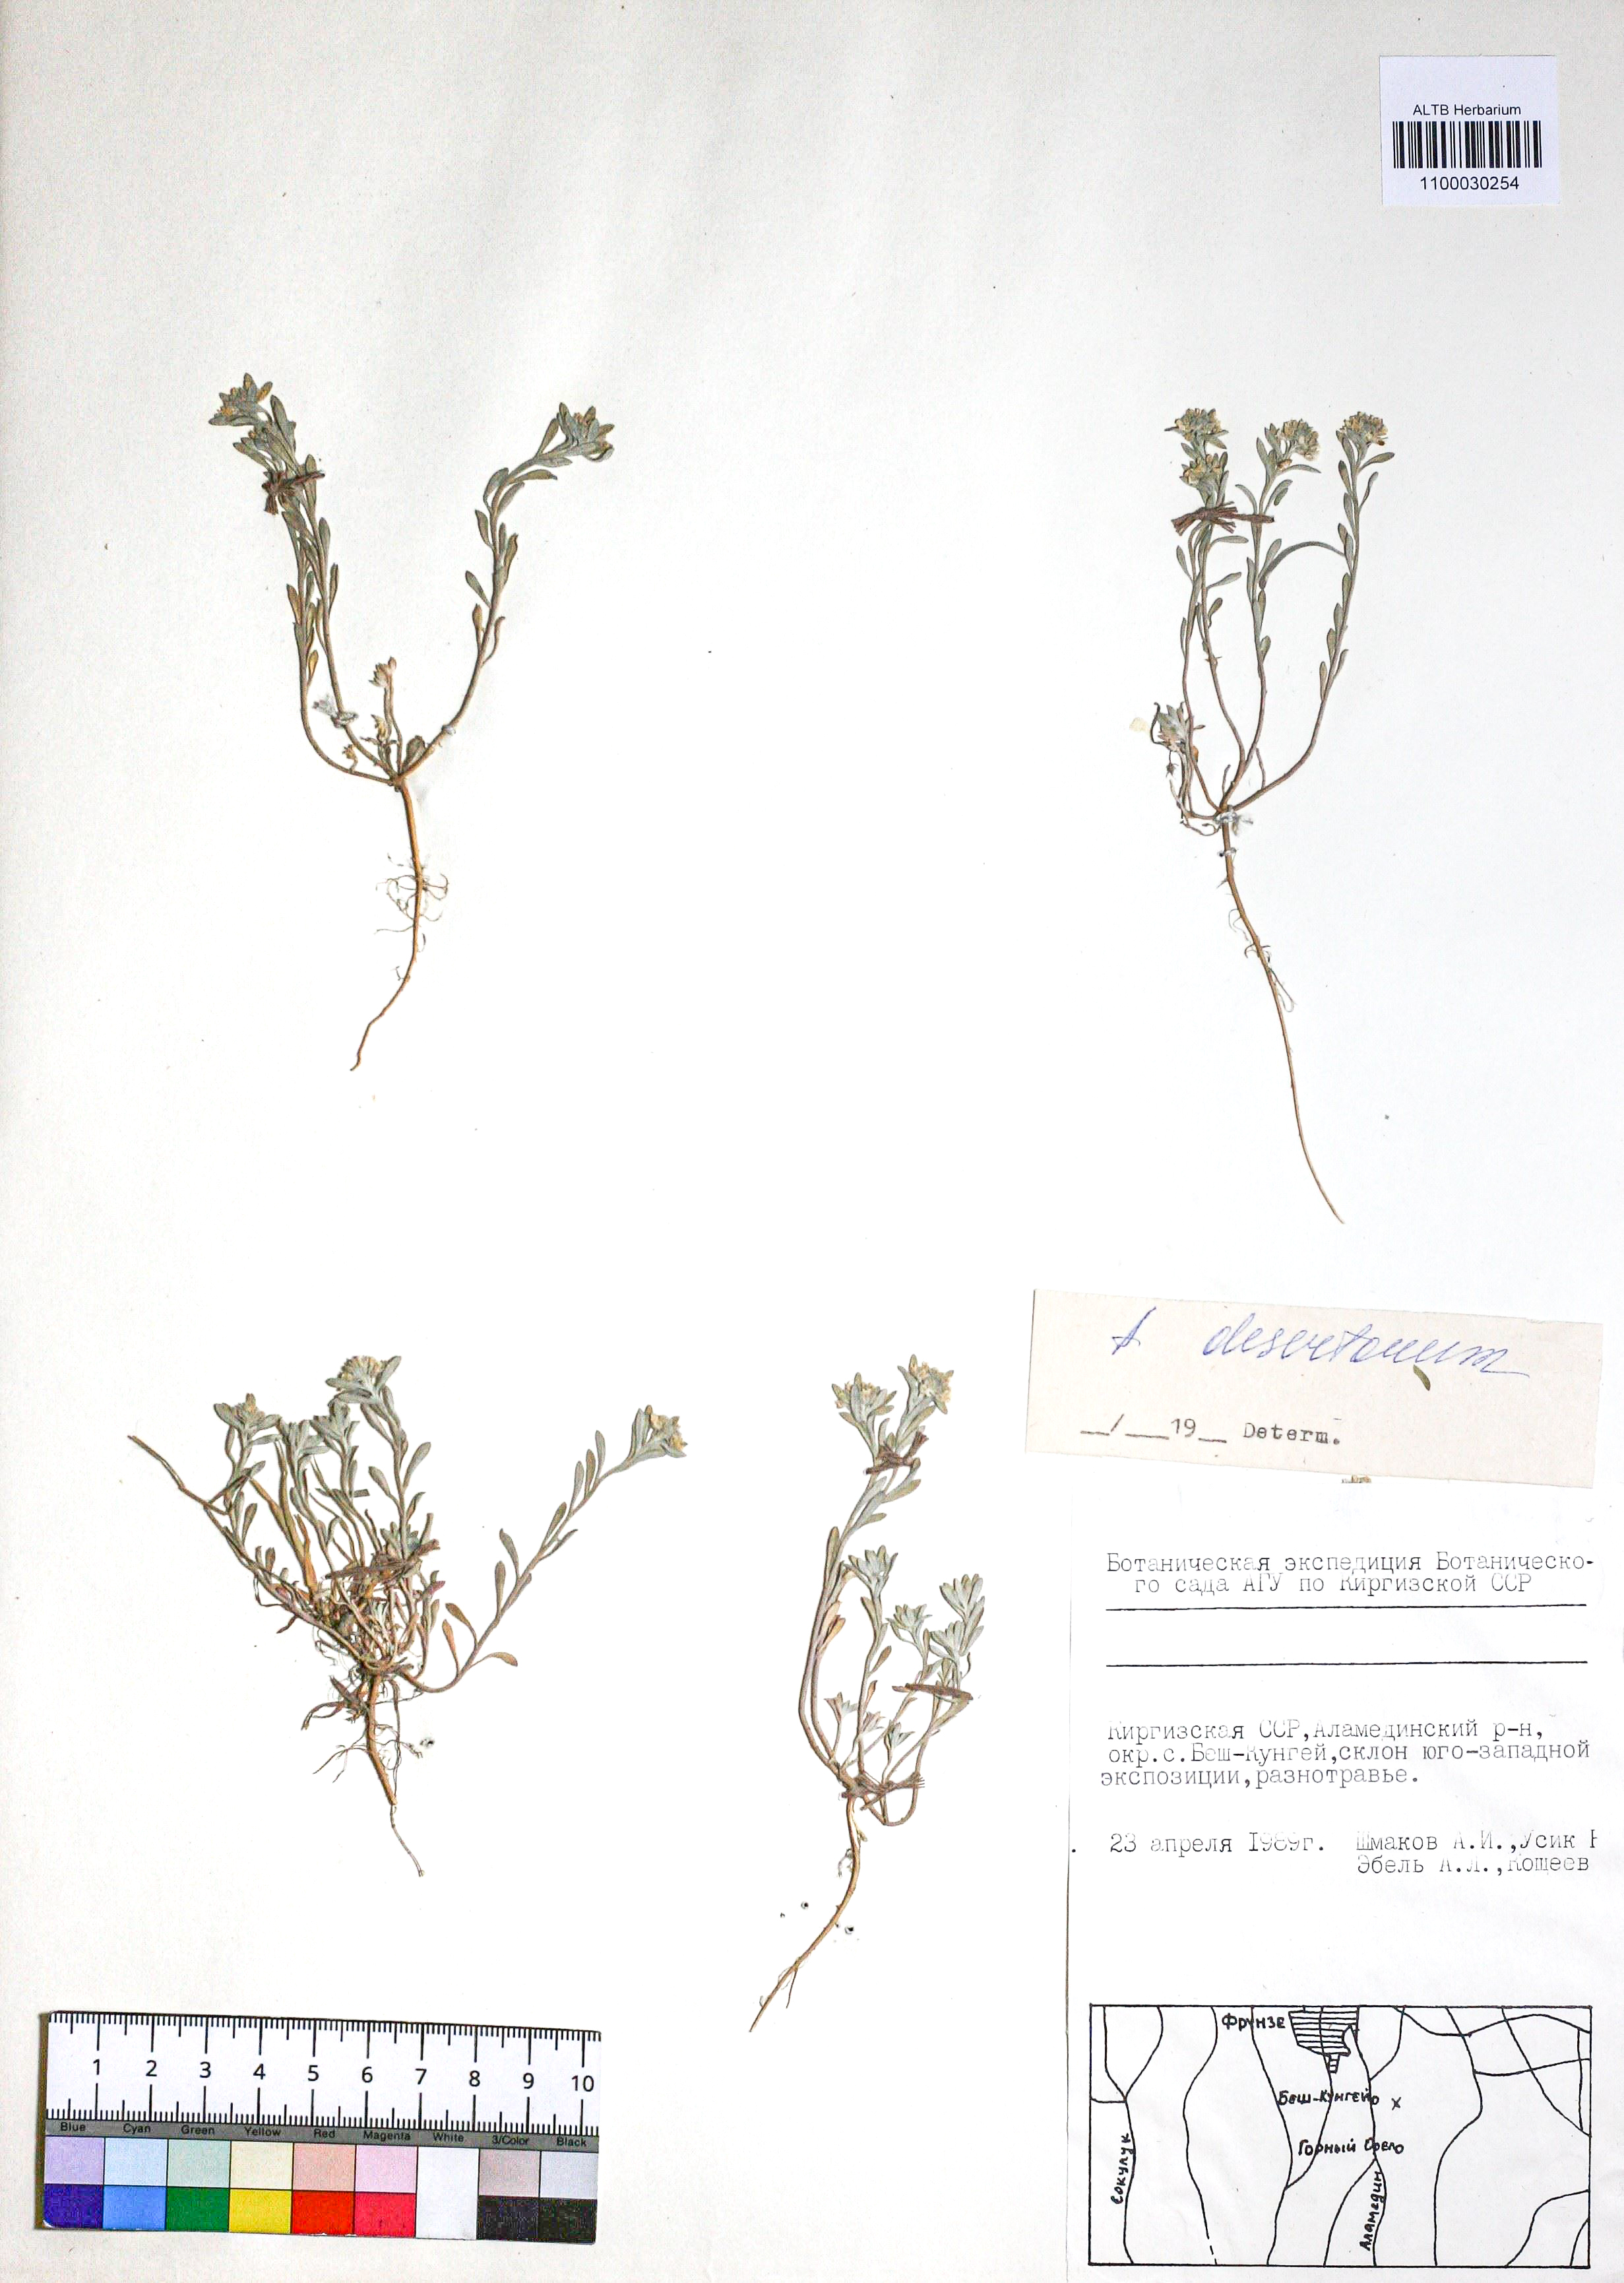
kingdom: Plantae
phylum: Tracheophyta
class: Magnoliopsida
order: Brassicales
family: Brassicaceae
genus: Alyssum
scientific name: Alyssum turkestanicum
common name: Desert alyssum
